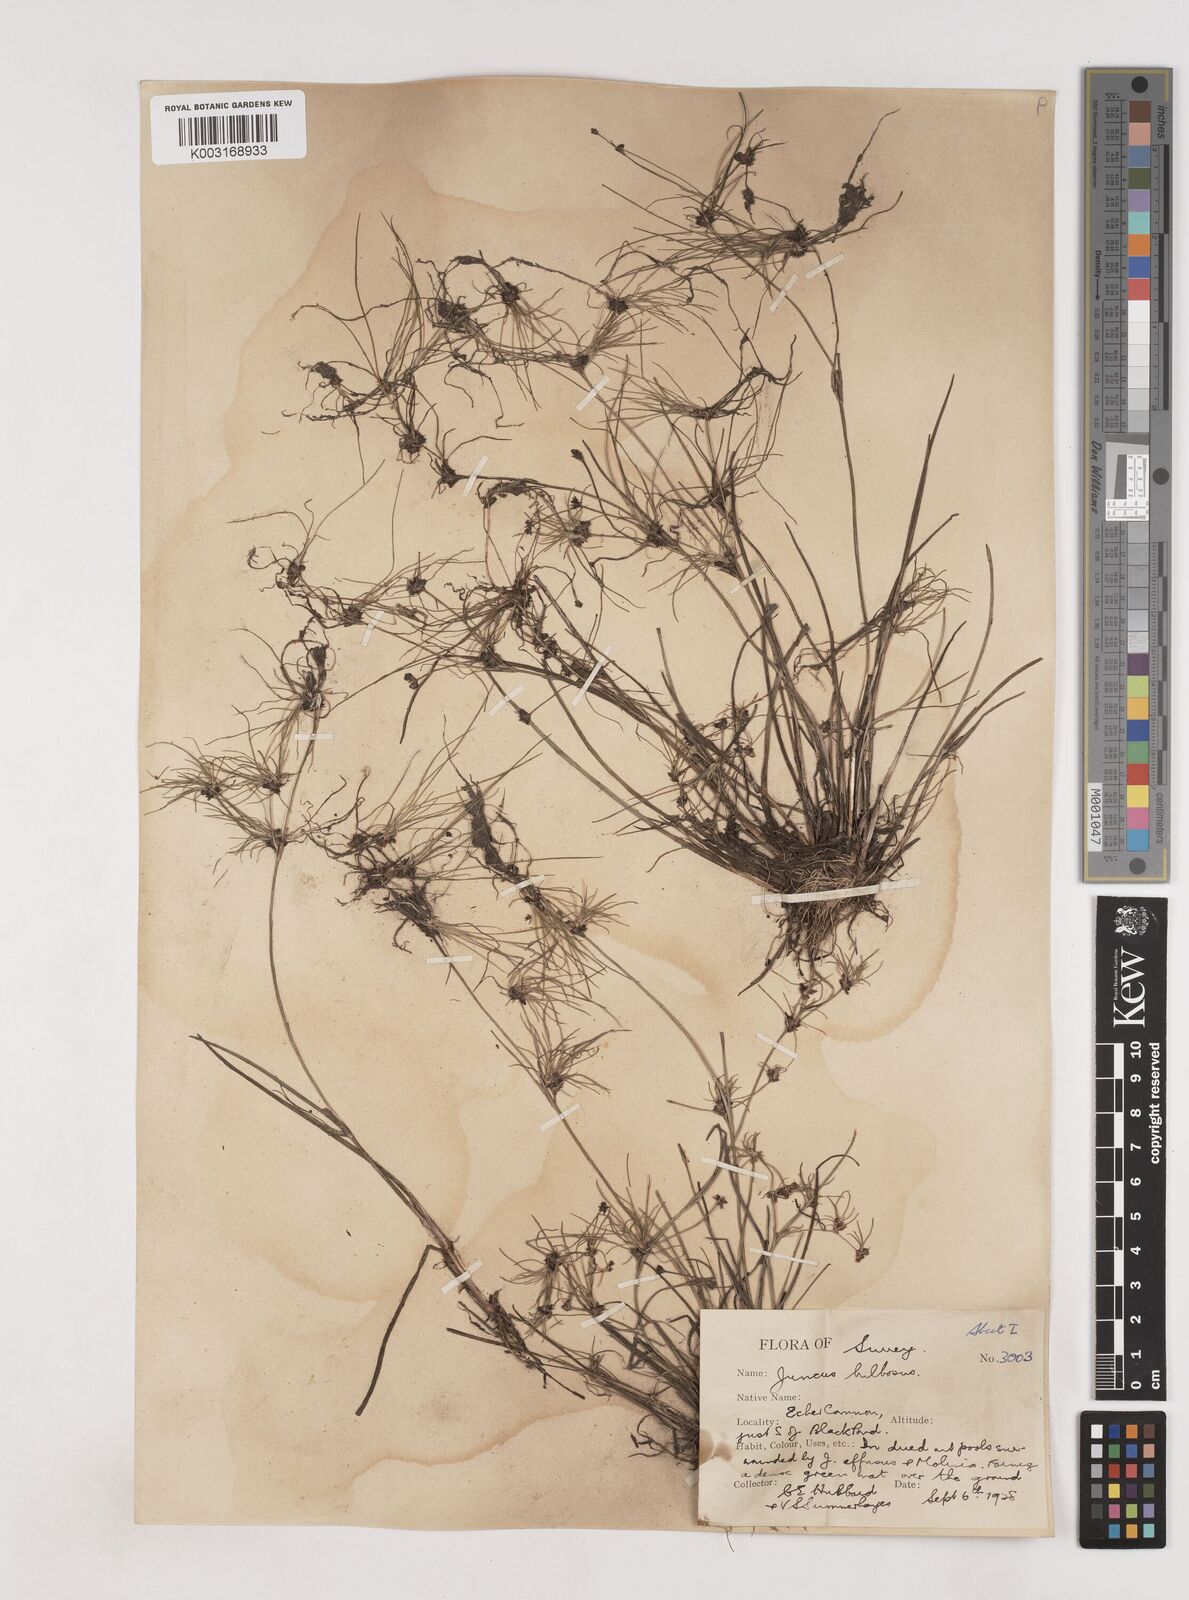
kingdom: Plantae
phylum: Tracheophyta
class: Liliopsida
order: Poales
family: Juncaceae
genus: Juncus
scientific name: Juncus bulbosus
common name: Bulbous rush
